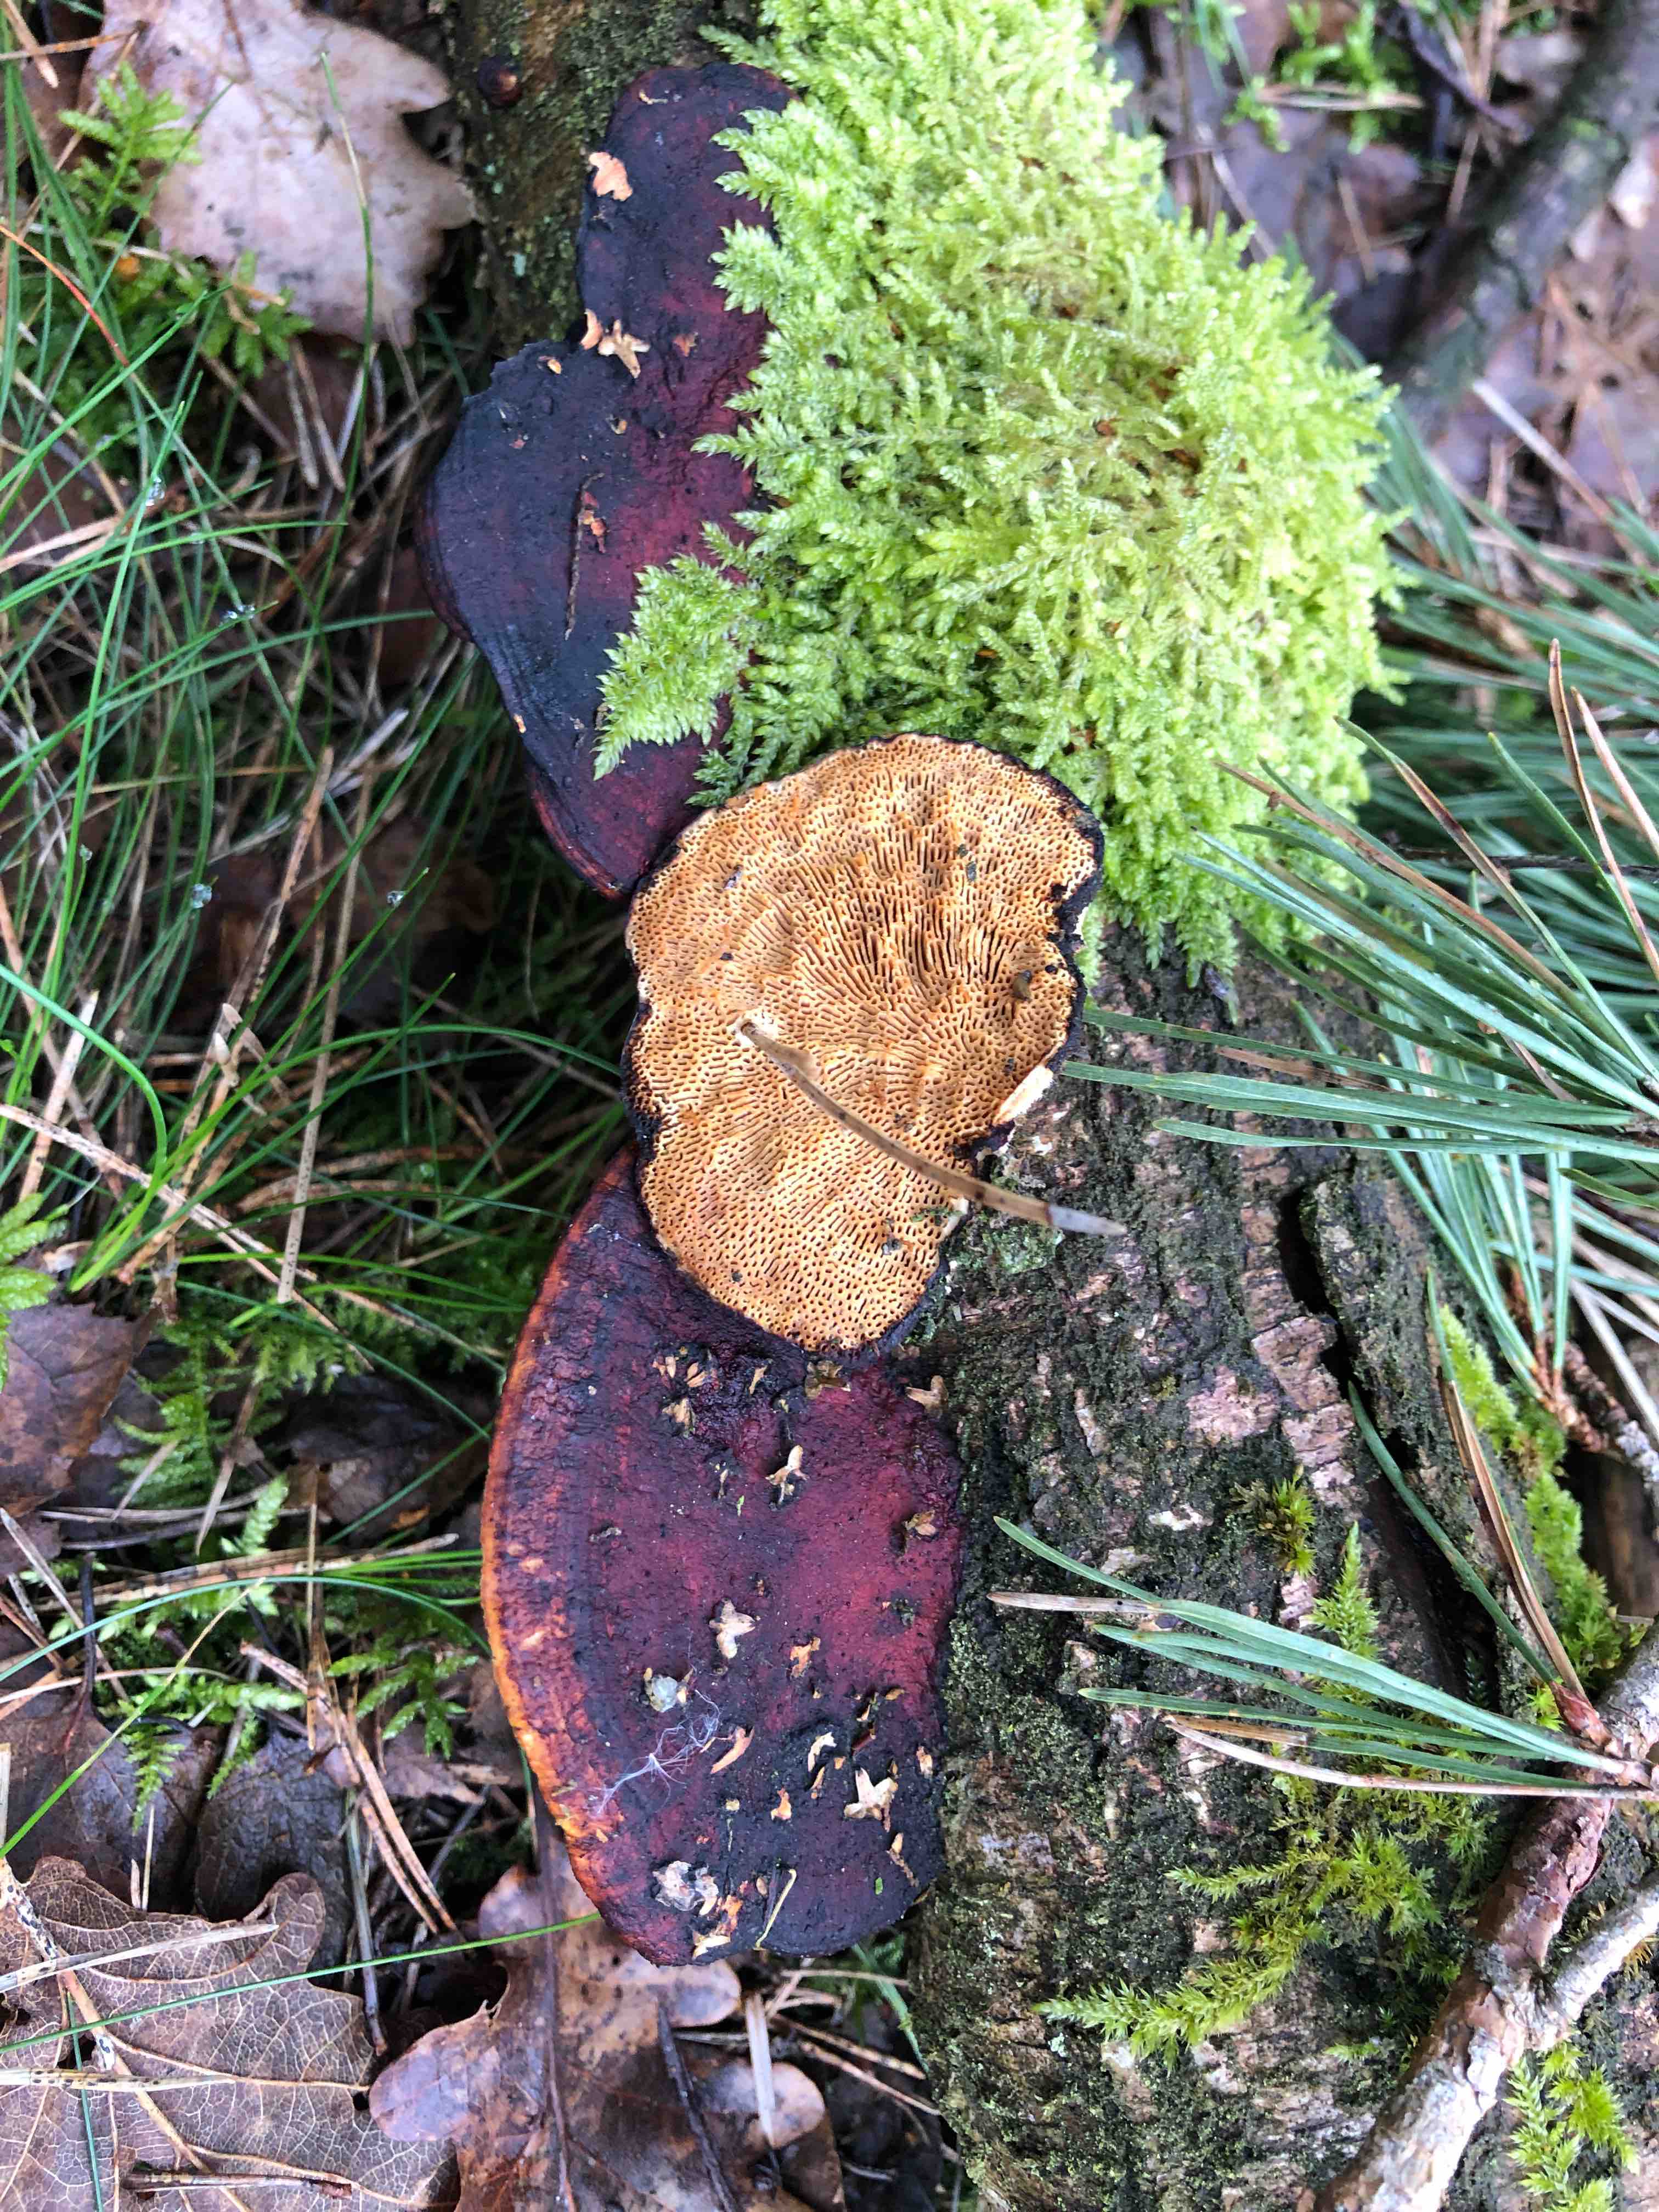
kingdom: Fungi
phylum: Basidiomycota
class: Agaricomycetes
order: Polyporales
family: Polyporaceae
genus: Daedaleopsis
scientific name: Daedaleopsis confragosa
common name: rødmende læderporesvamp
